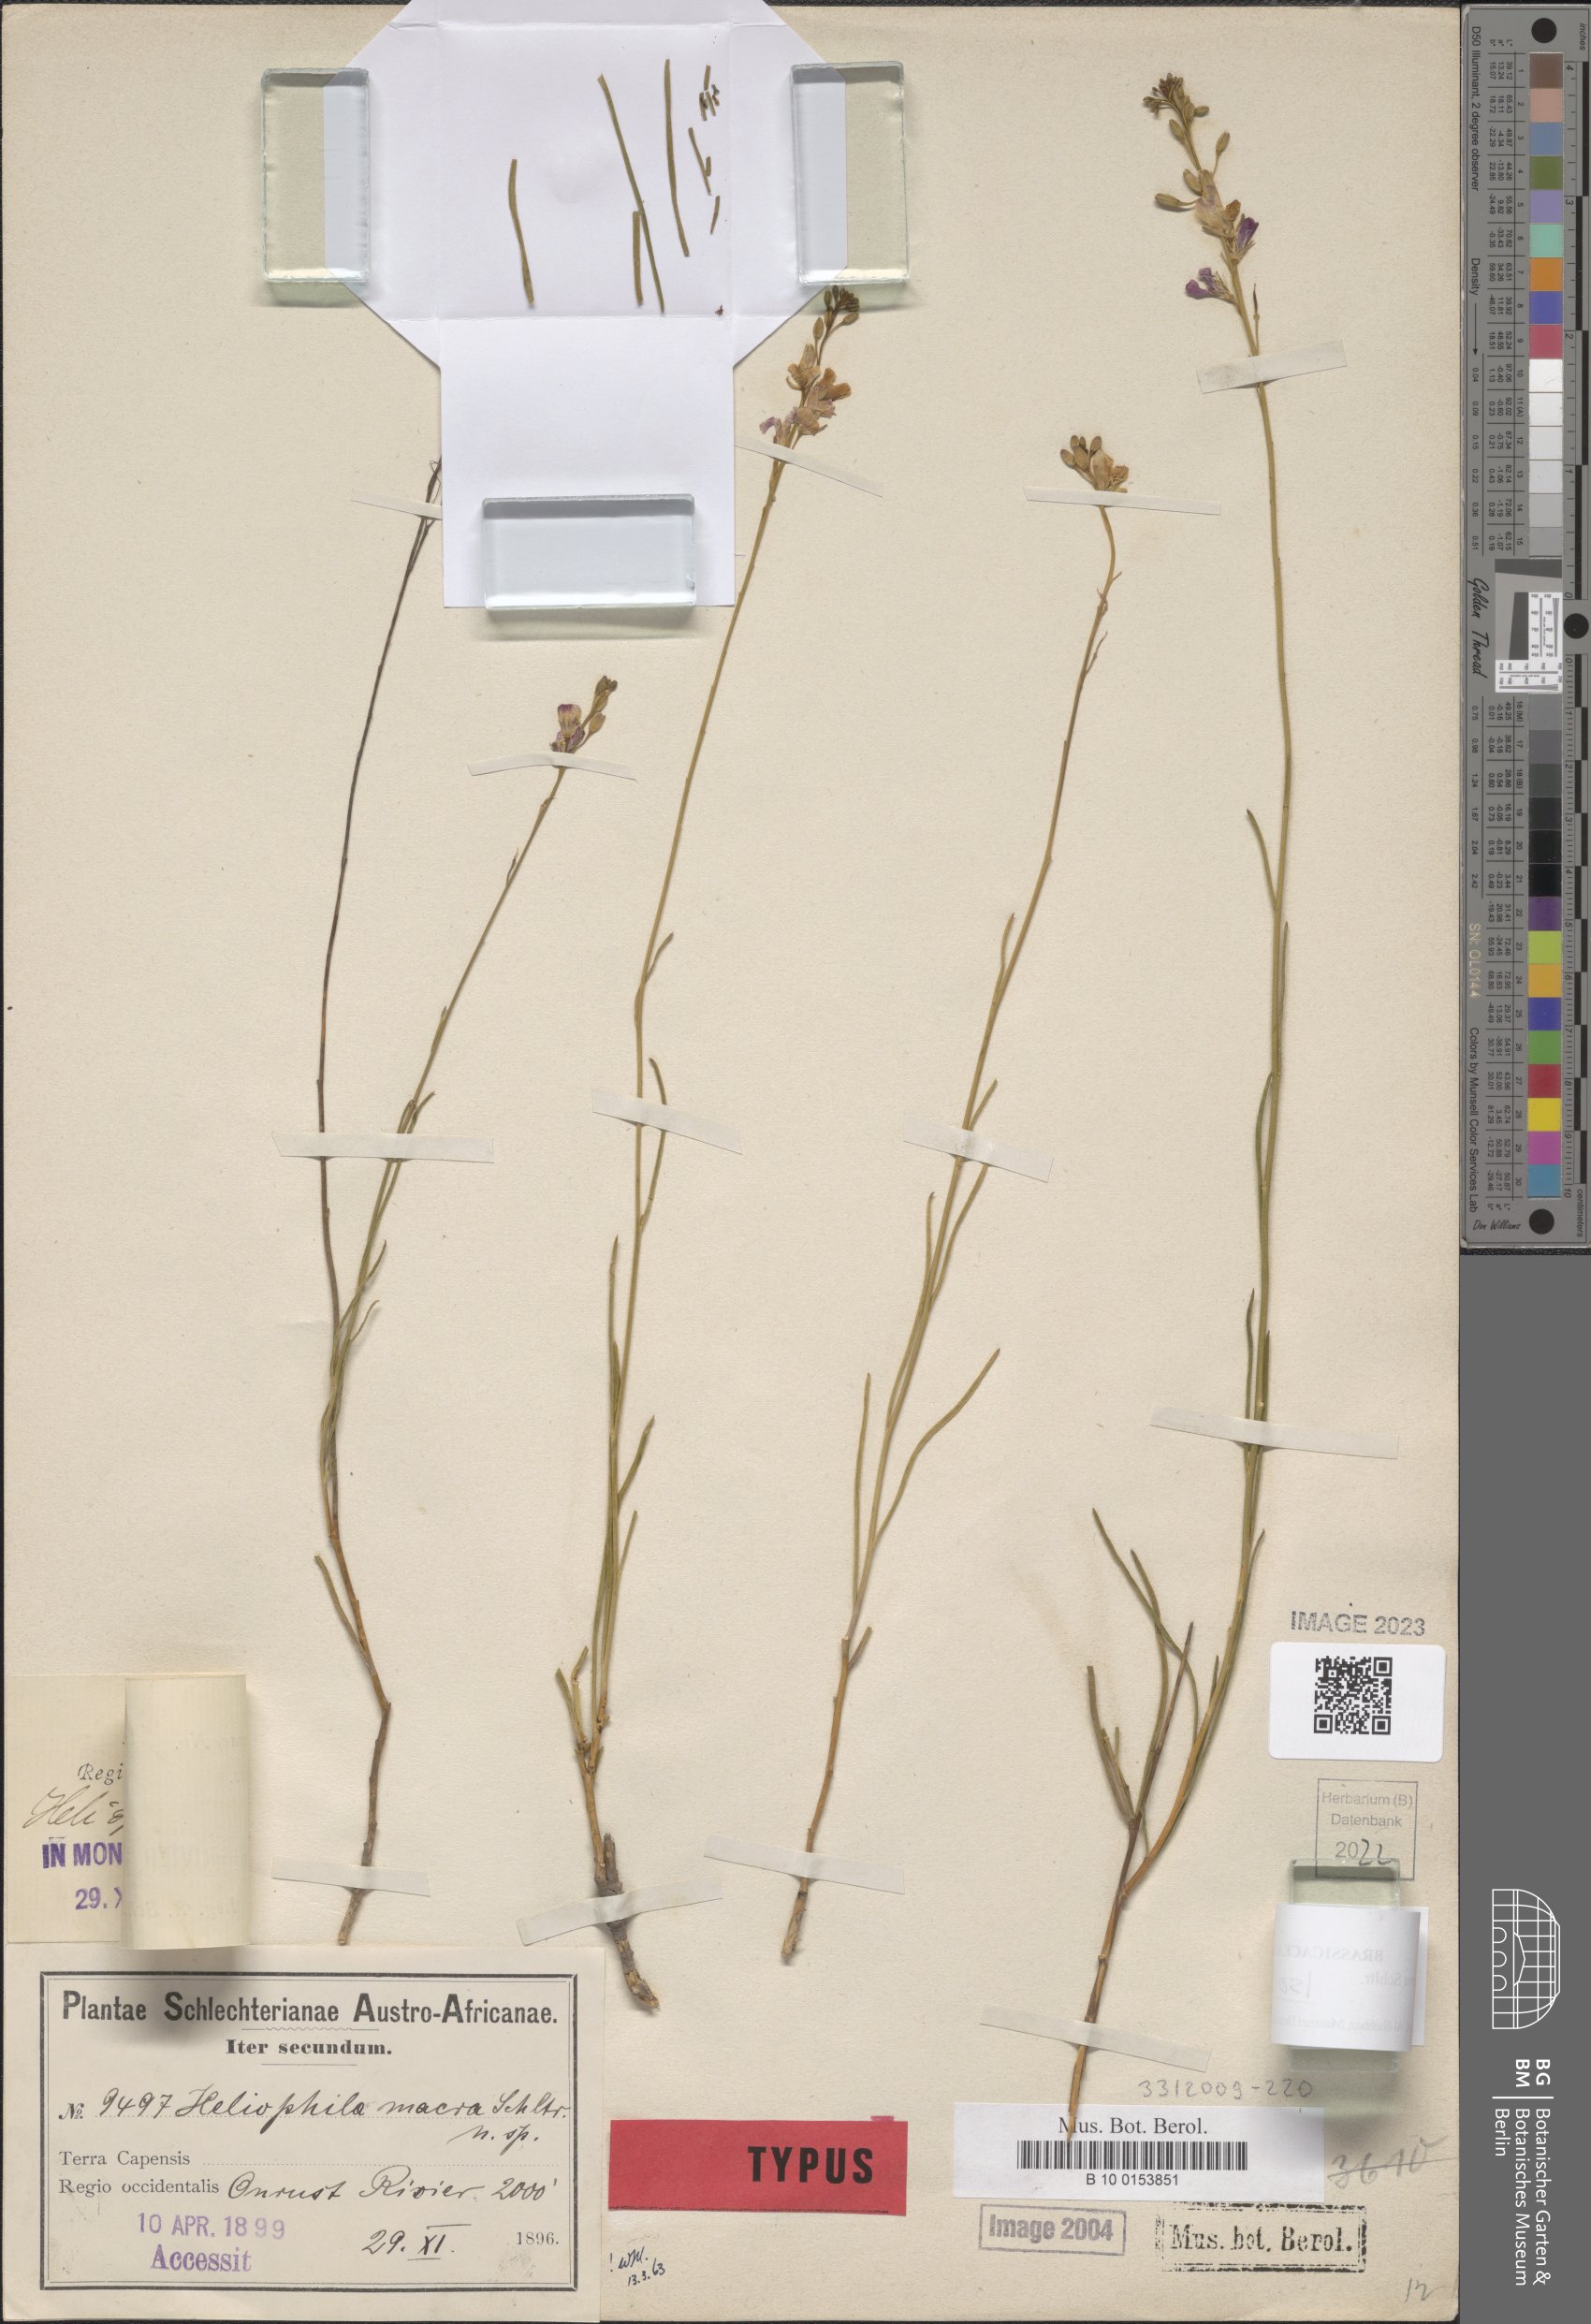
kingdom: Plantae
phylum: Tracheophyta
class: Magnoliopsida
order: Brassicales
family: Brassicaceae
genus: Heliophila
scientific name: Heliophila macra
